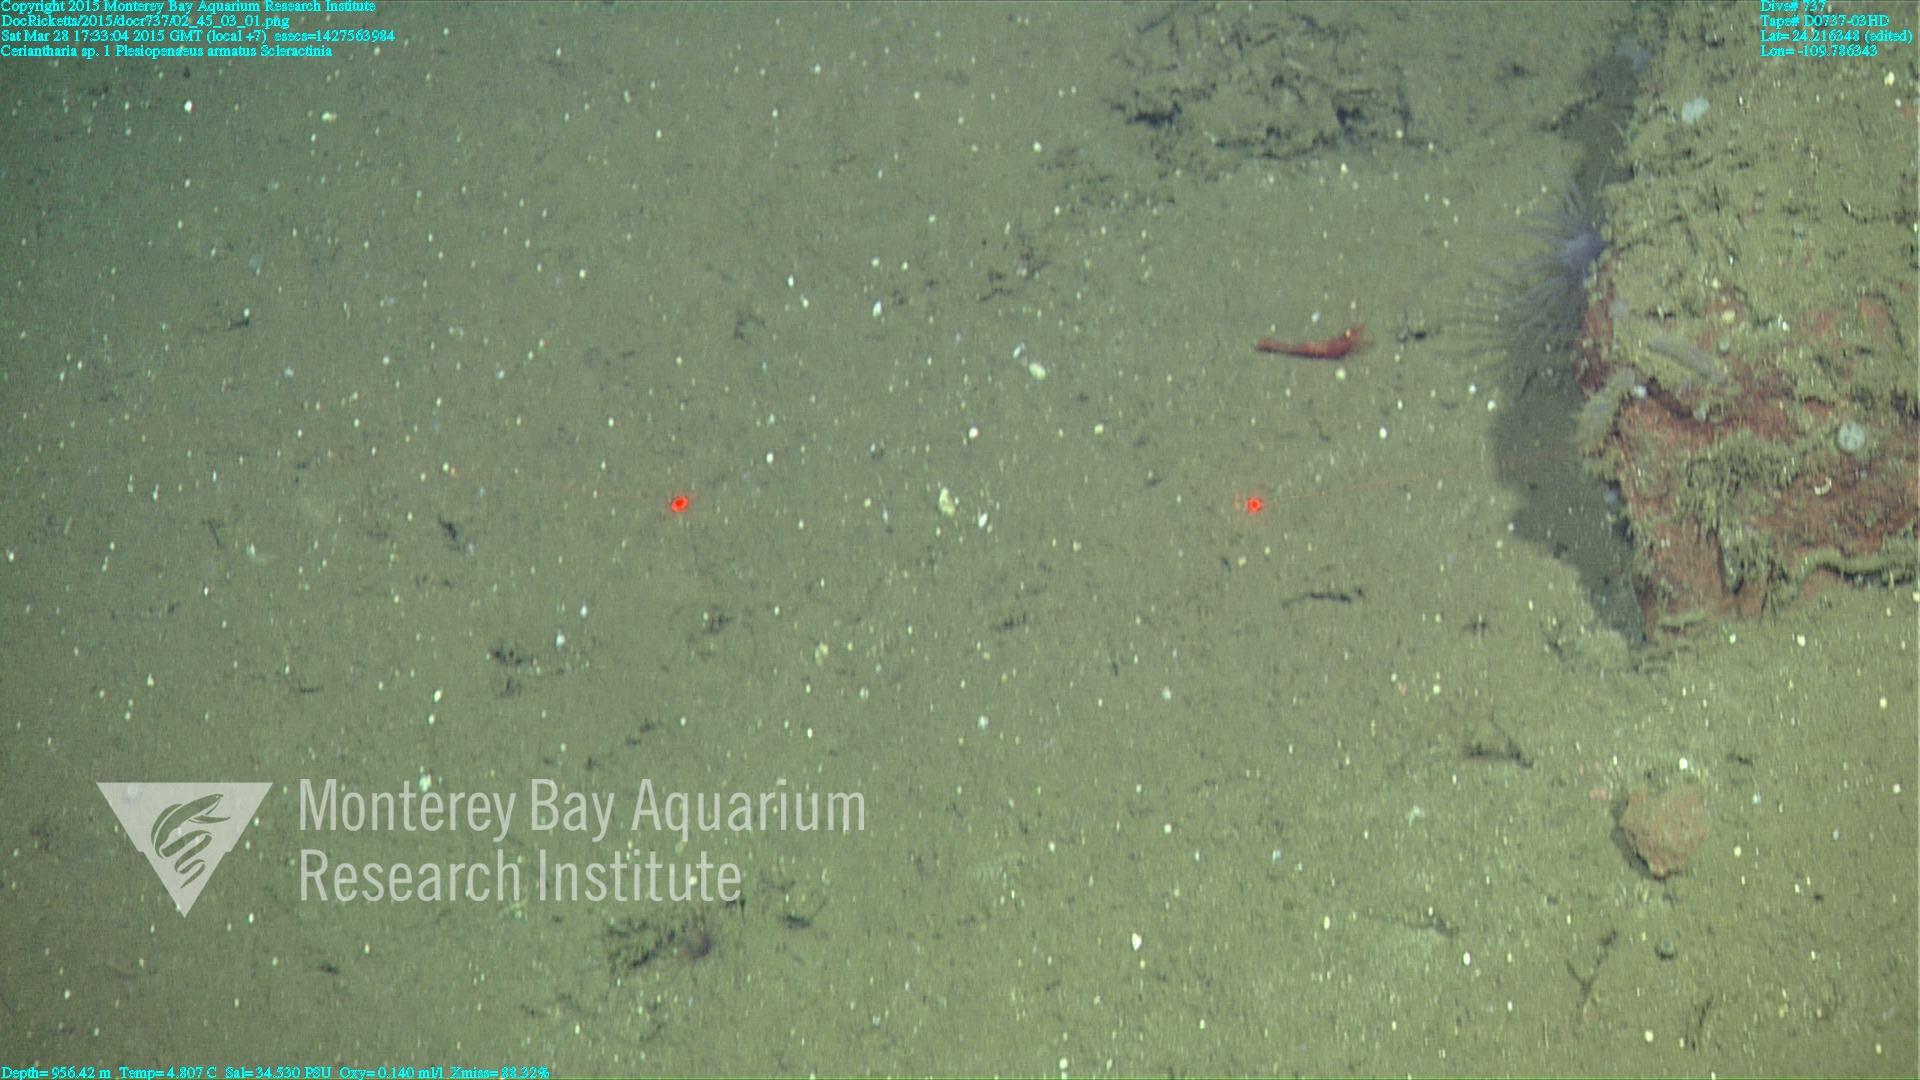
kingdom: Animalia
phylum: Cnidaria
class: Anthozoa
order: Scleractinia
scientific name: Scleractinia
